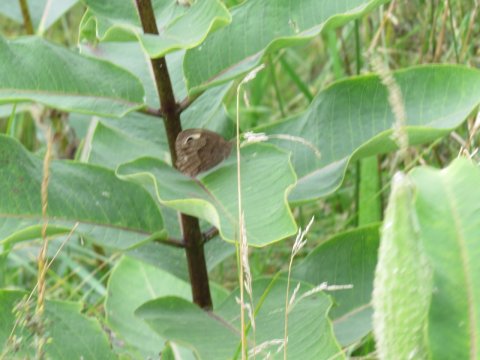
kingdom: Animalia
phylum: Arthropoda
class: Insecta
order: Lepidoptera
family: Nymphalidae
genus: Cercyonis
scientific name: Cercyonis pegala
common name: Common Wood-Nymph
